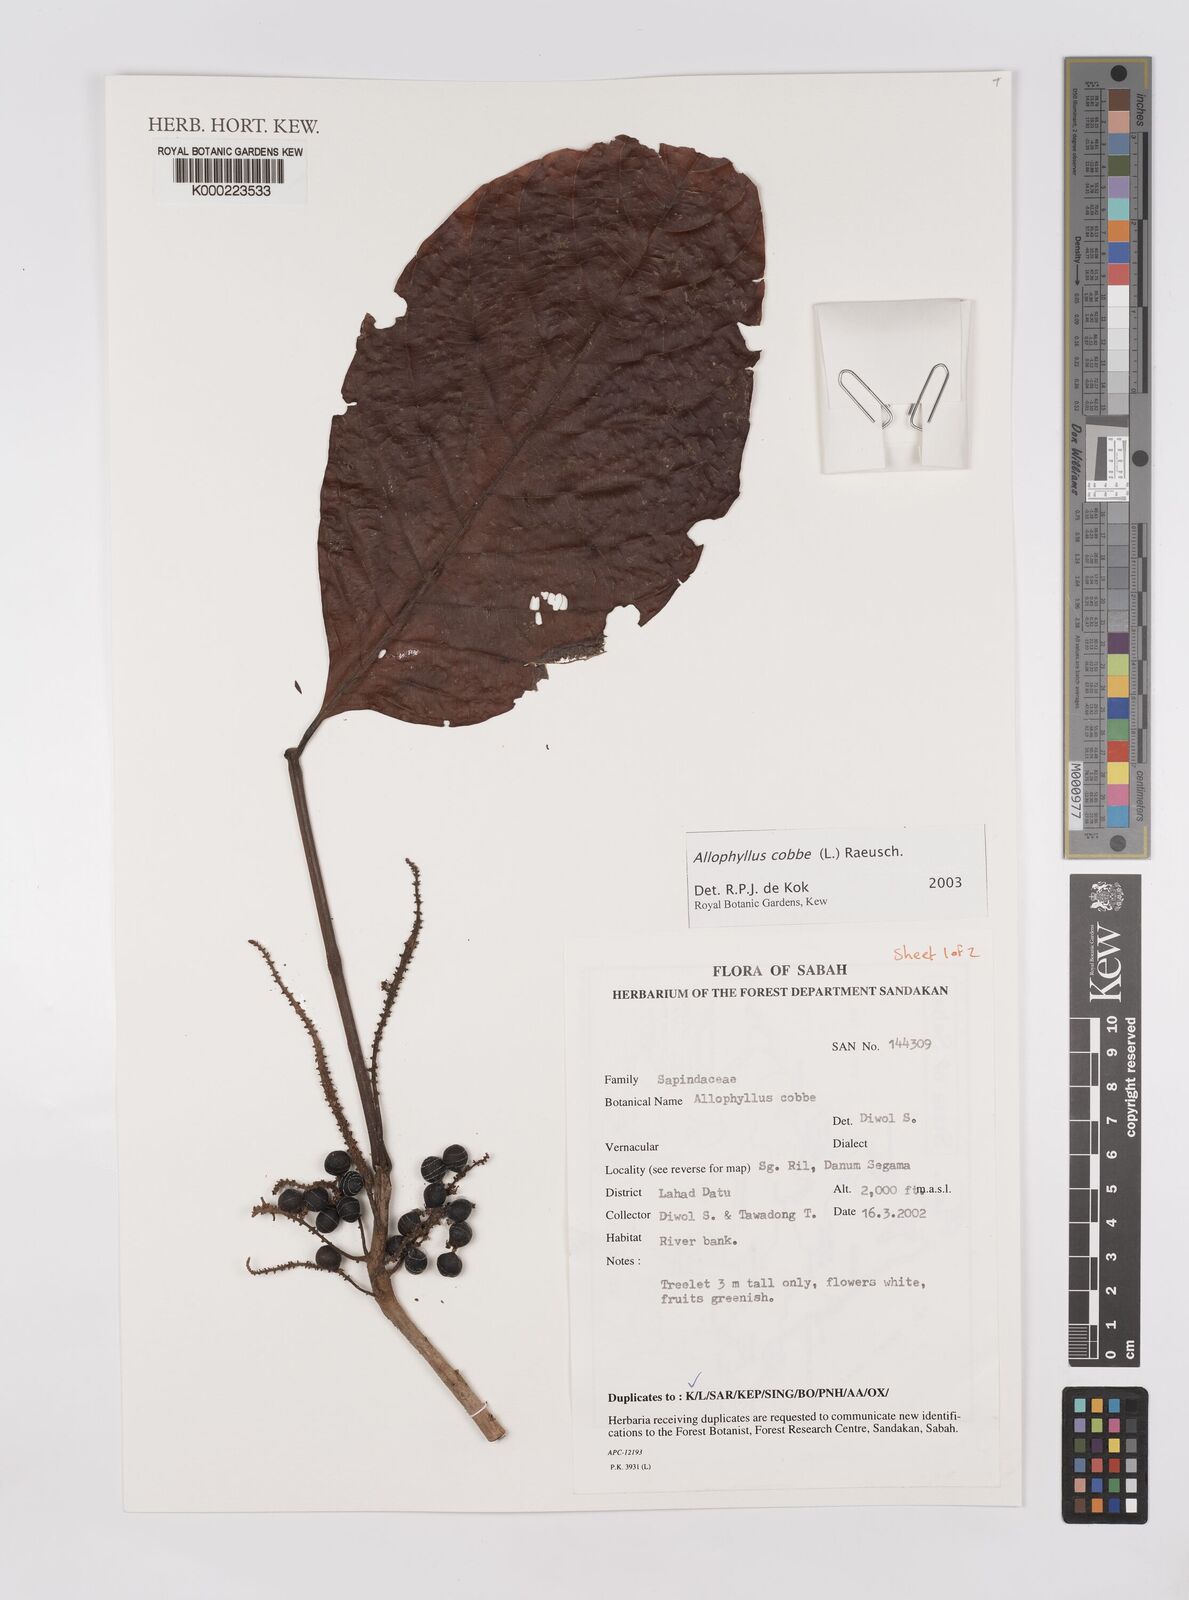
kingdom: Plantae
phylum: Tracheophyta
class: Magnoliopsida
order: Sapindales
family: Sapindaceae
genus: Allophylus
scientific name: Allophylus
